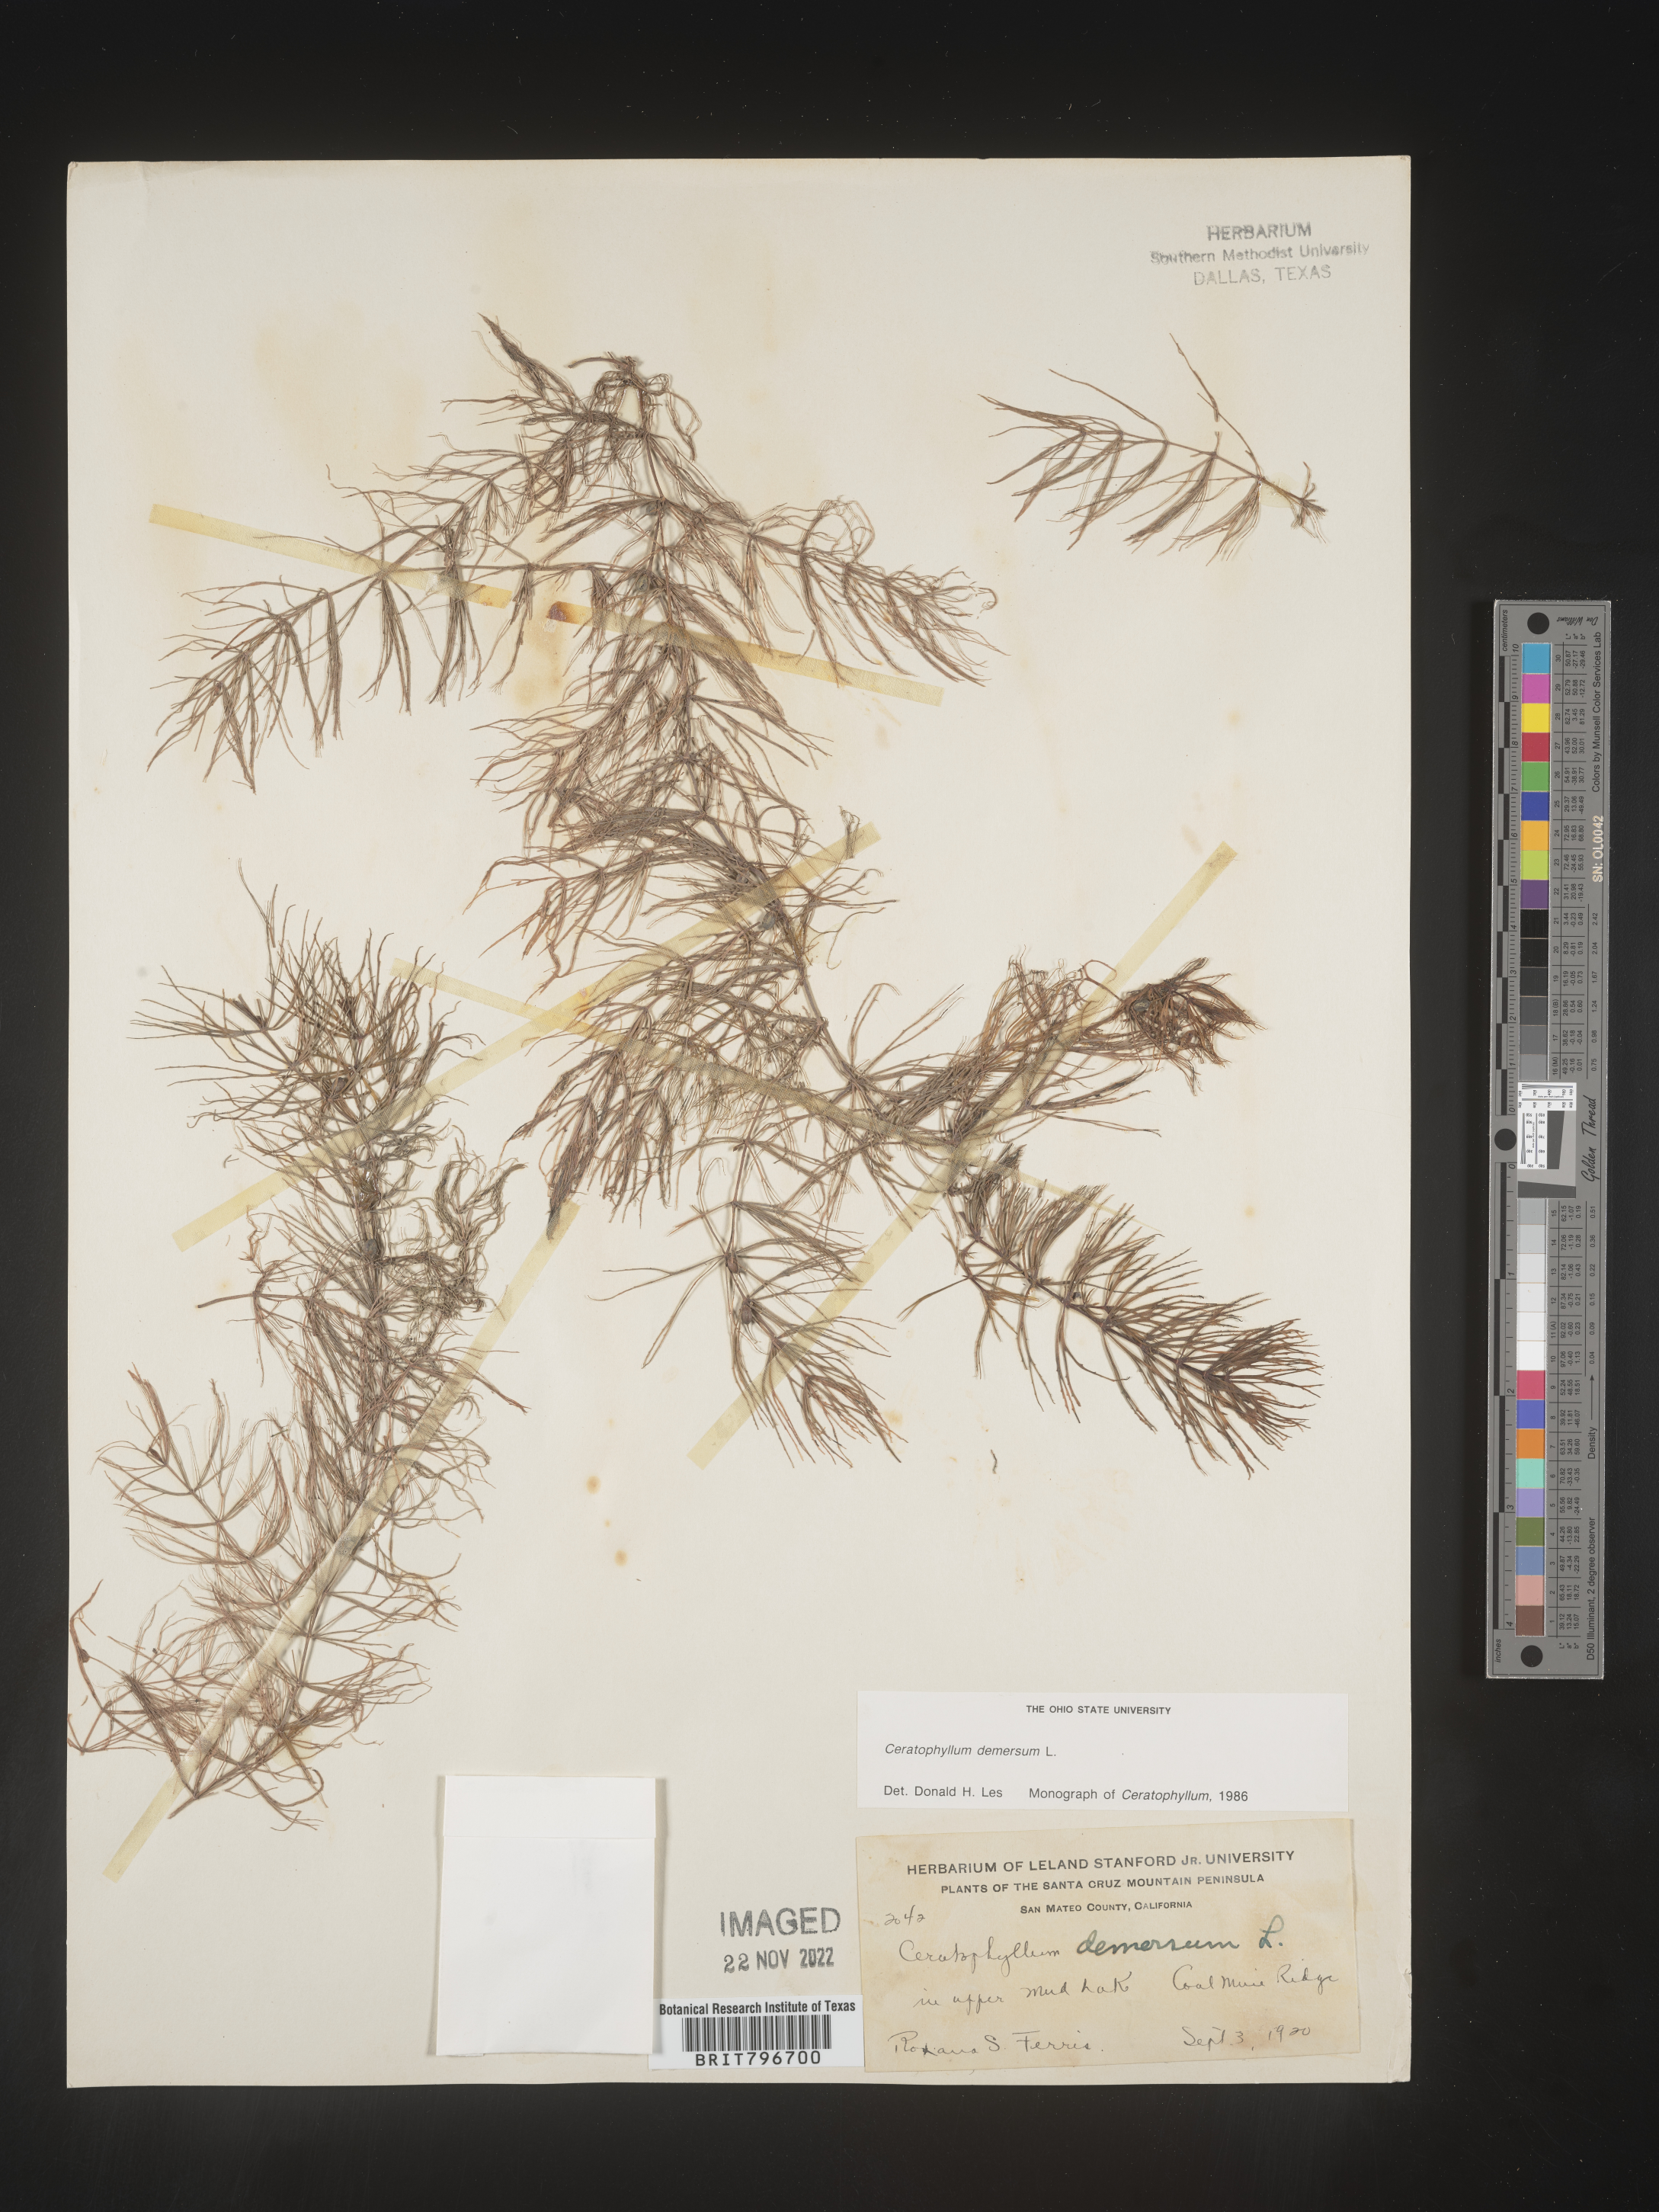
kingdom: Plantae
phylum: Tracheophyta
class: Magnoliopsida
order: Ceratophyllales
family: Ceratophyllaceae
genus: Ceratophyllum
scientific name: Ceratophyllum demersum
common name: Rigid hornwort
